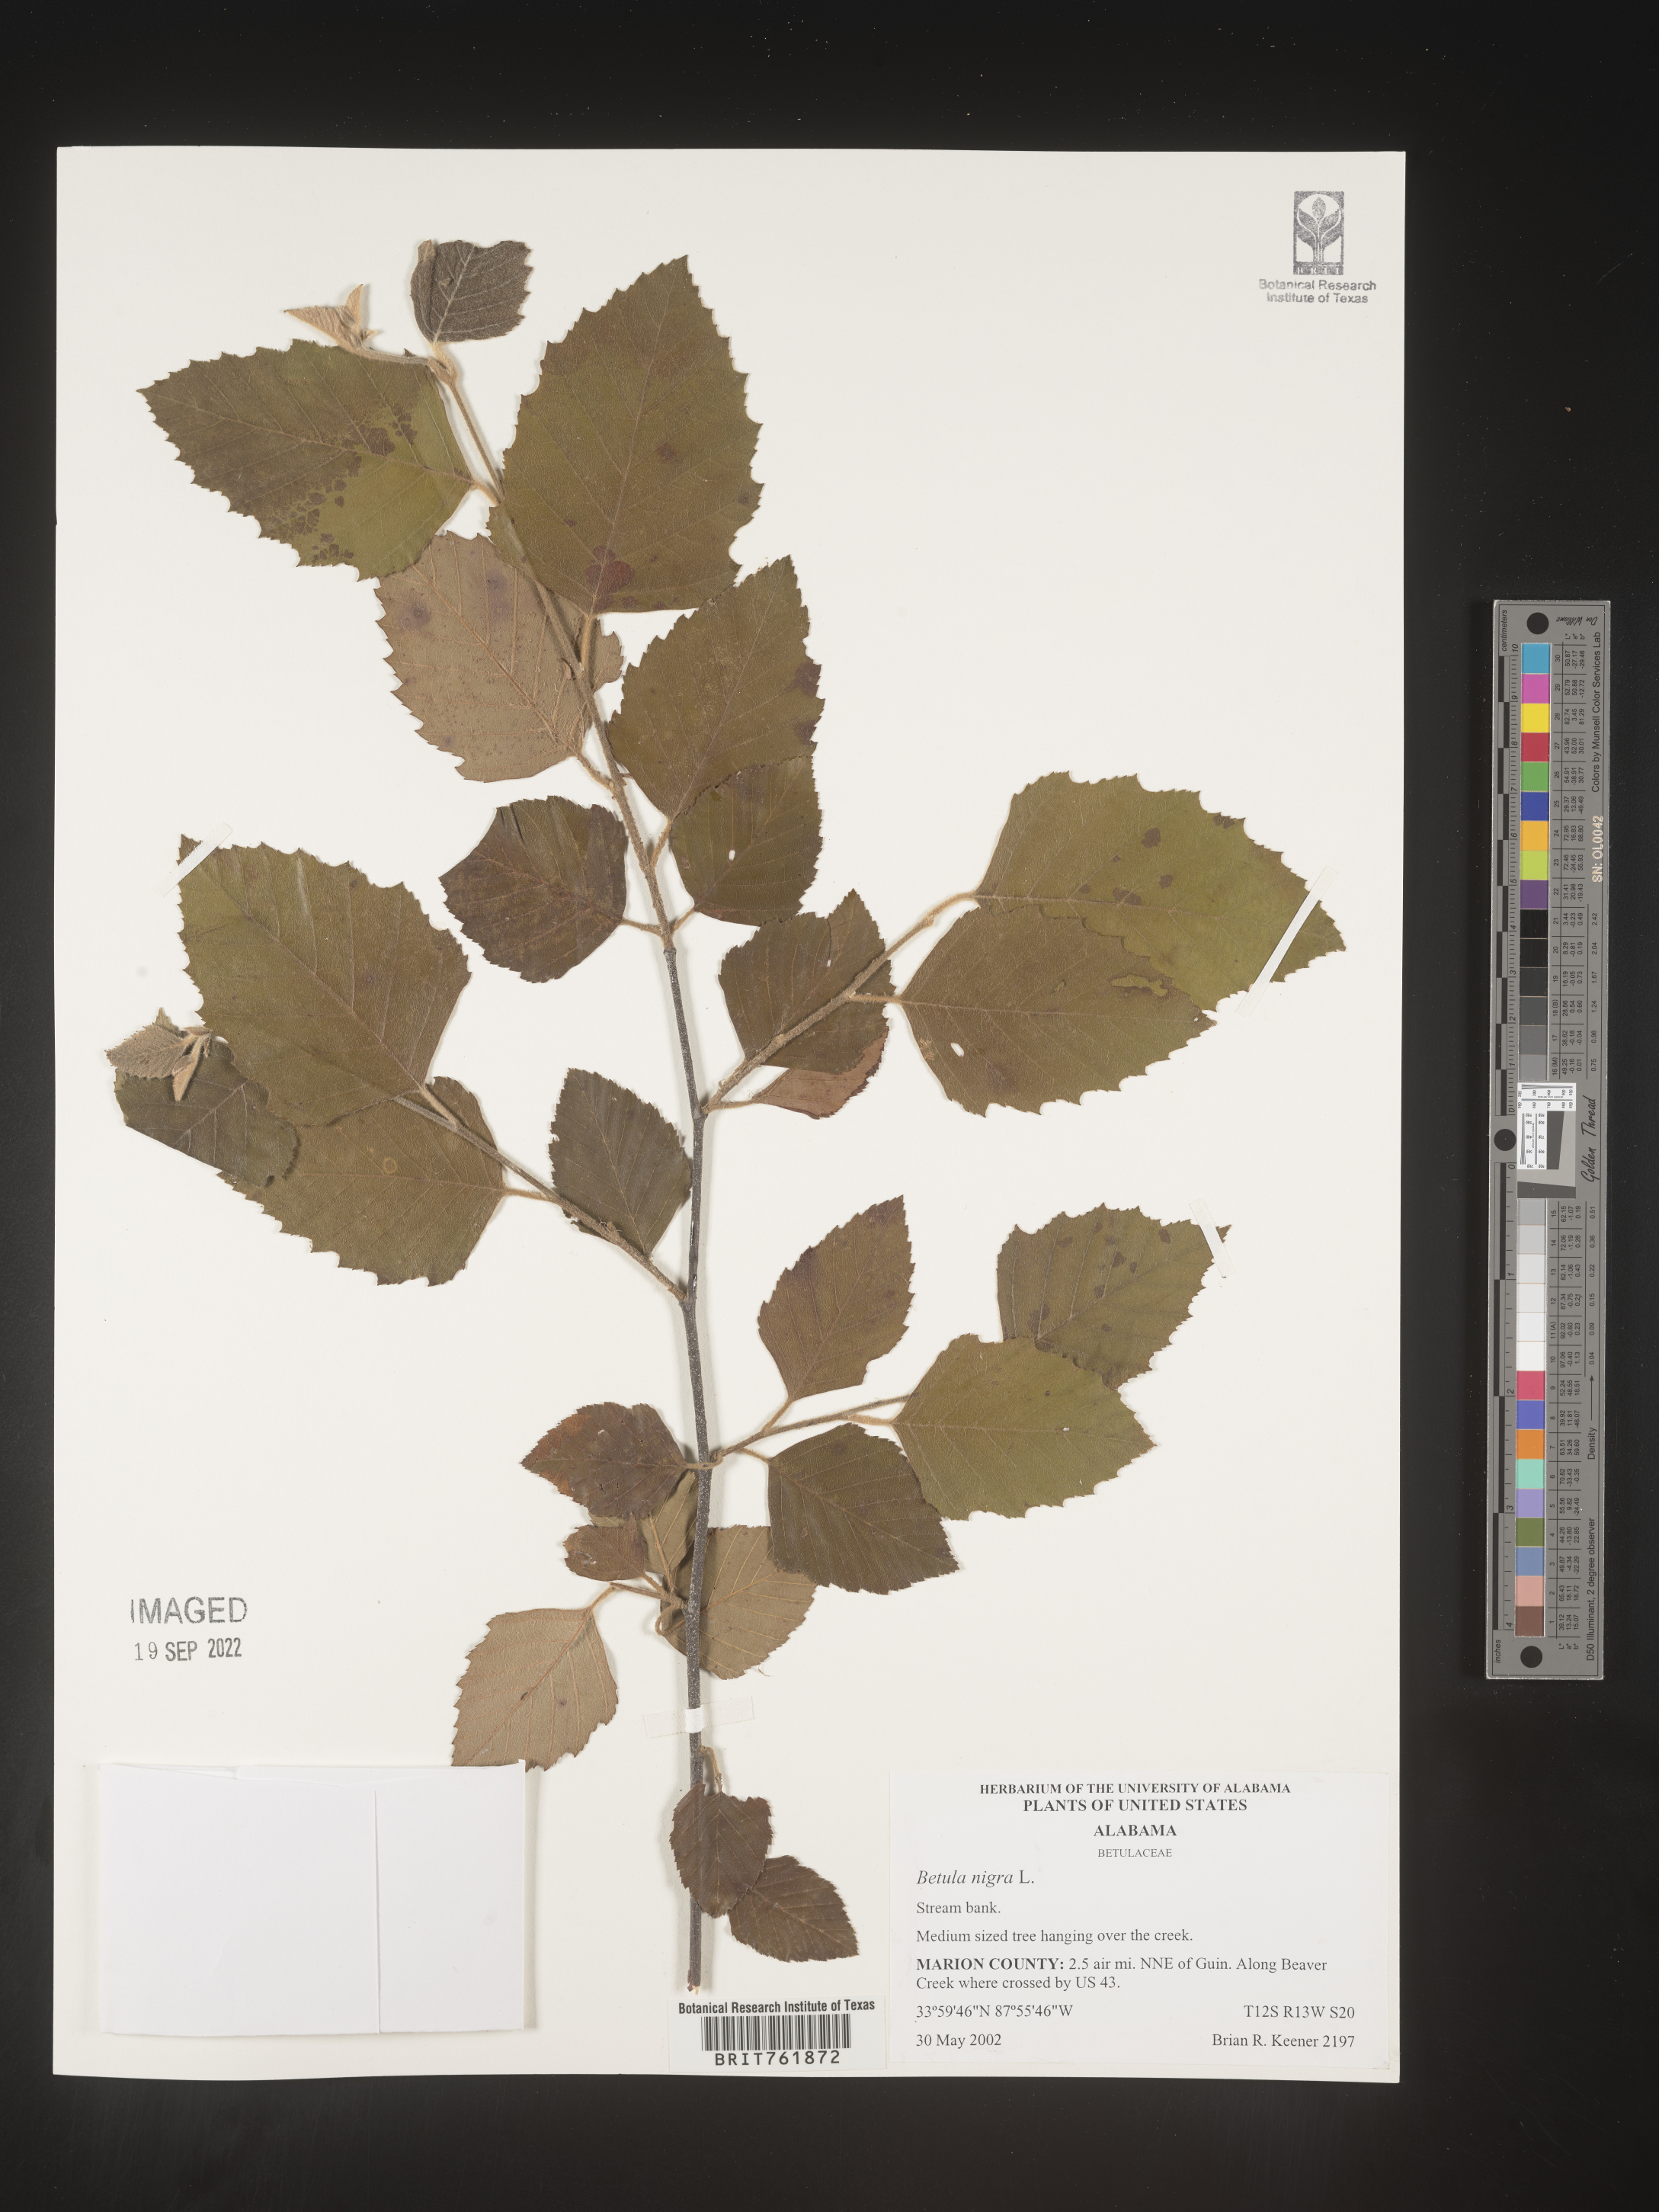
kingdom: Plantae
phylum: Tracheophyta
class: Magnoliopsida
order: Fagales
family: Betulaceae
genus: Betula
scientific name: Betula nigra
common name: Black birch
